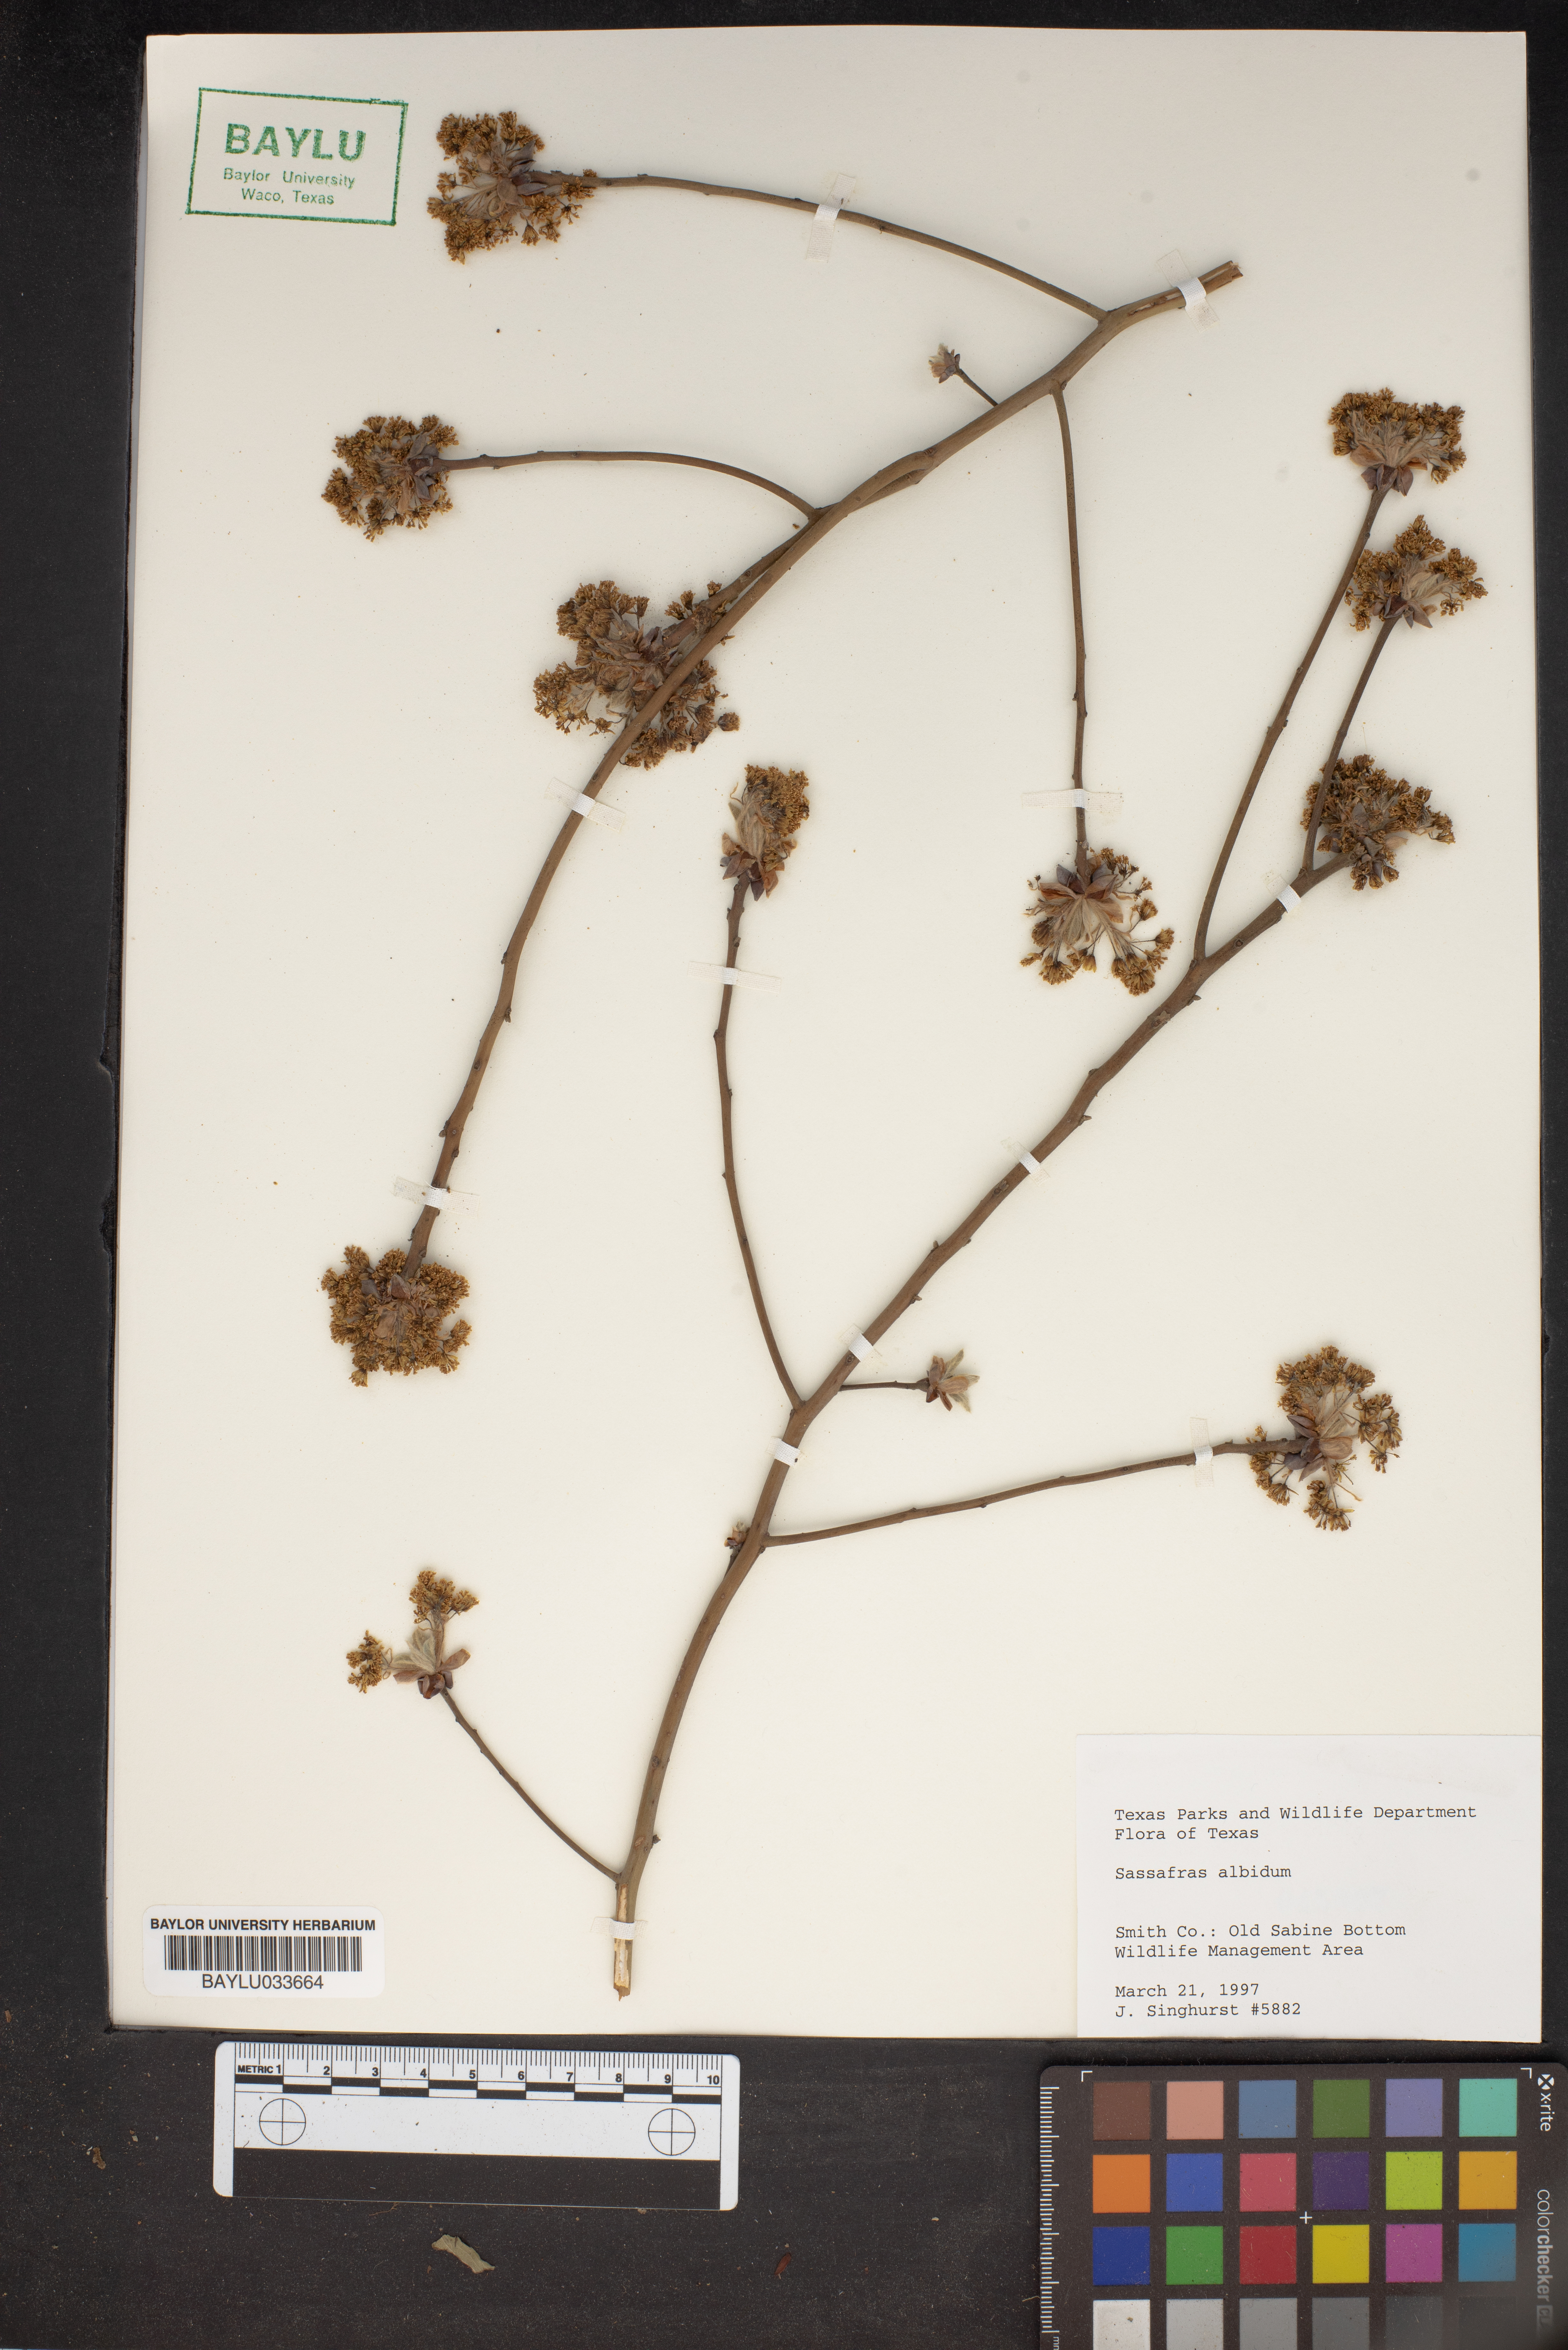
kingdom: Plantae
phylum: Tracheophyta
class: Magnoliopsida
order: Laurales
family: Lauraceae
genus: Sassafras
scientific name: Sassafras albidum
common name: Sassafras
